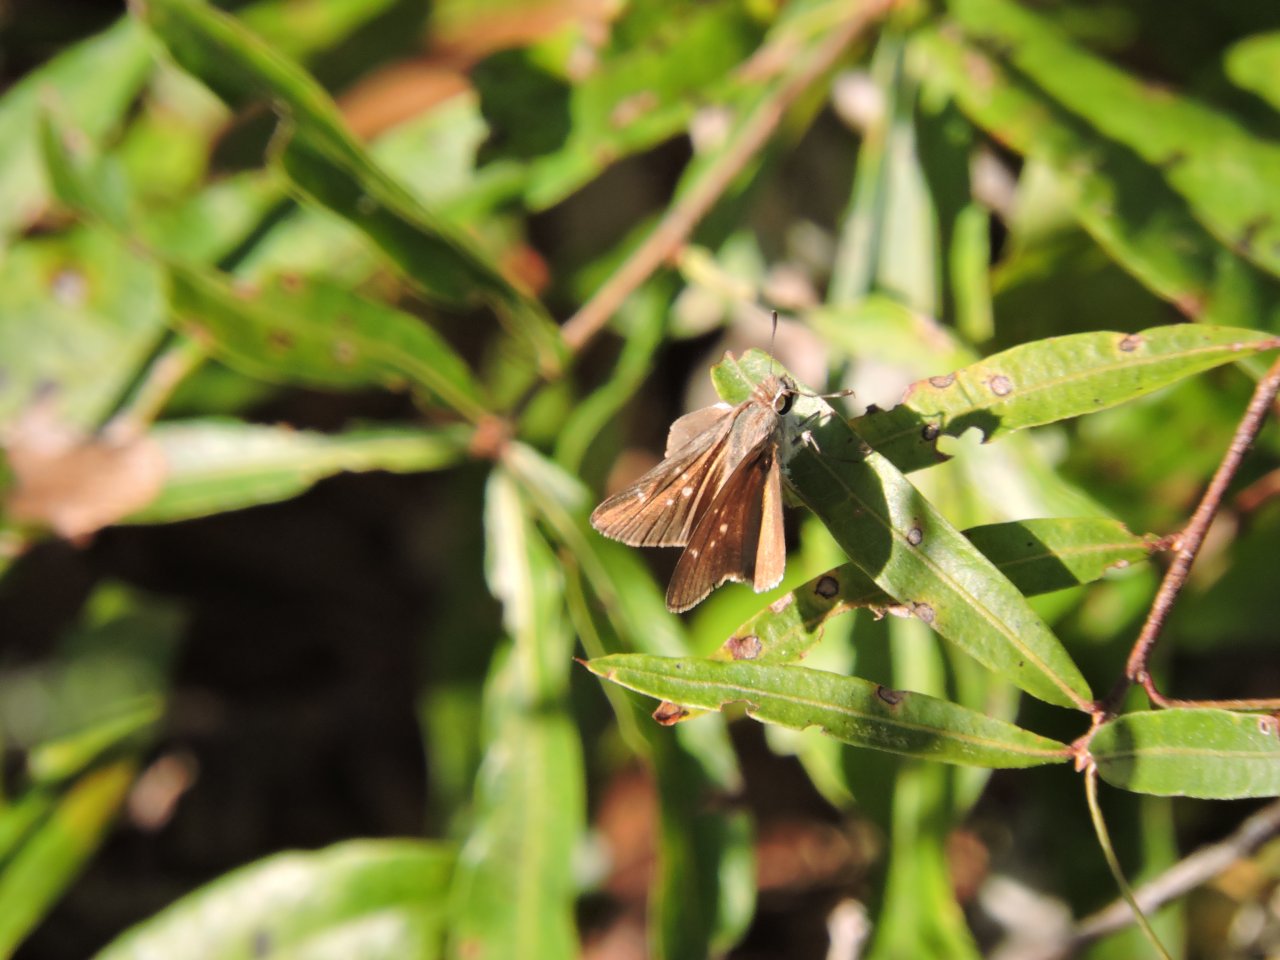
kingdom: Animalia
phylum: Arthropoda
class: Insecta
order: Lepidoptera
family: Hesperiidae
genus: Lerodea
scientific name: Lerodea eufala
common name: Eufala Skipper
